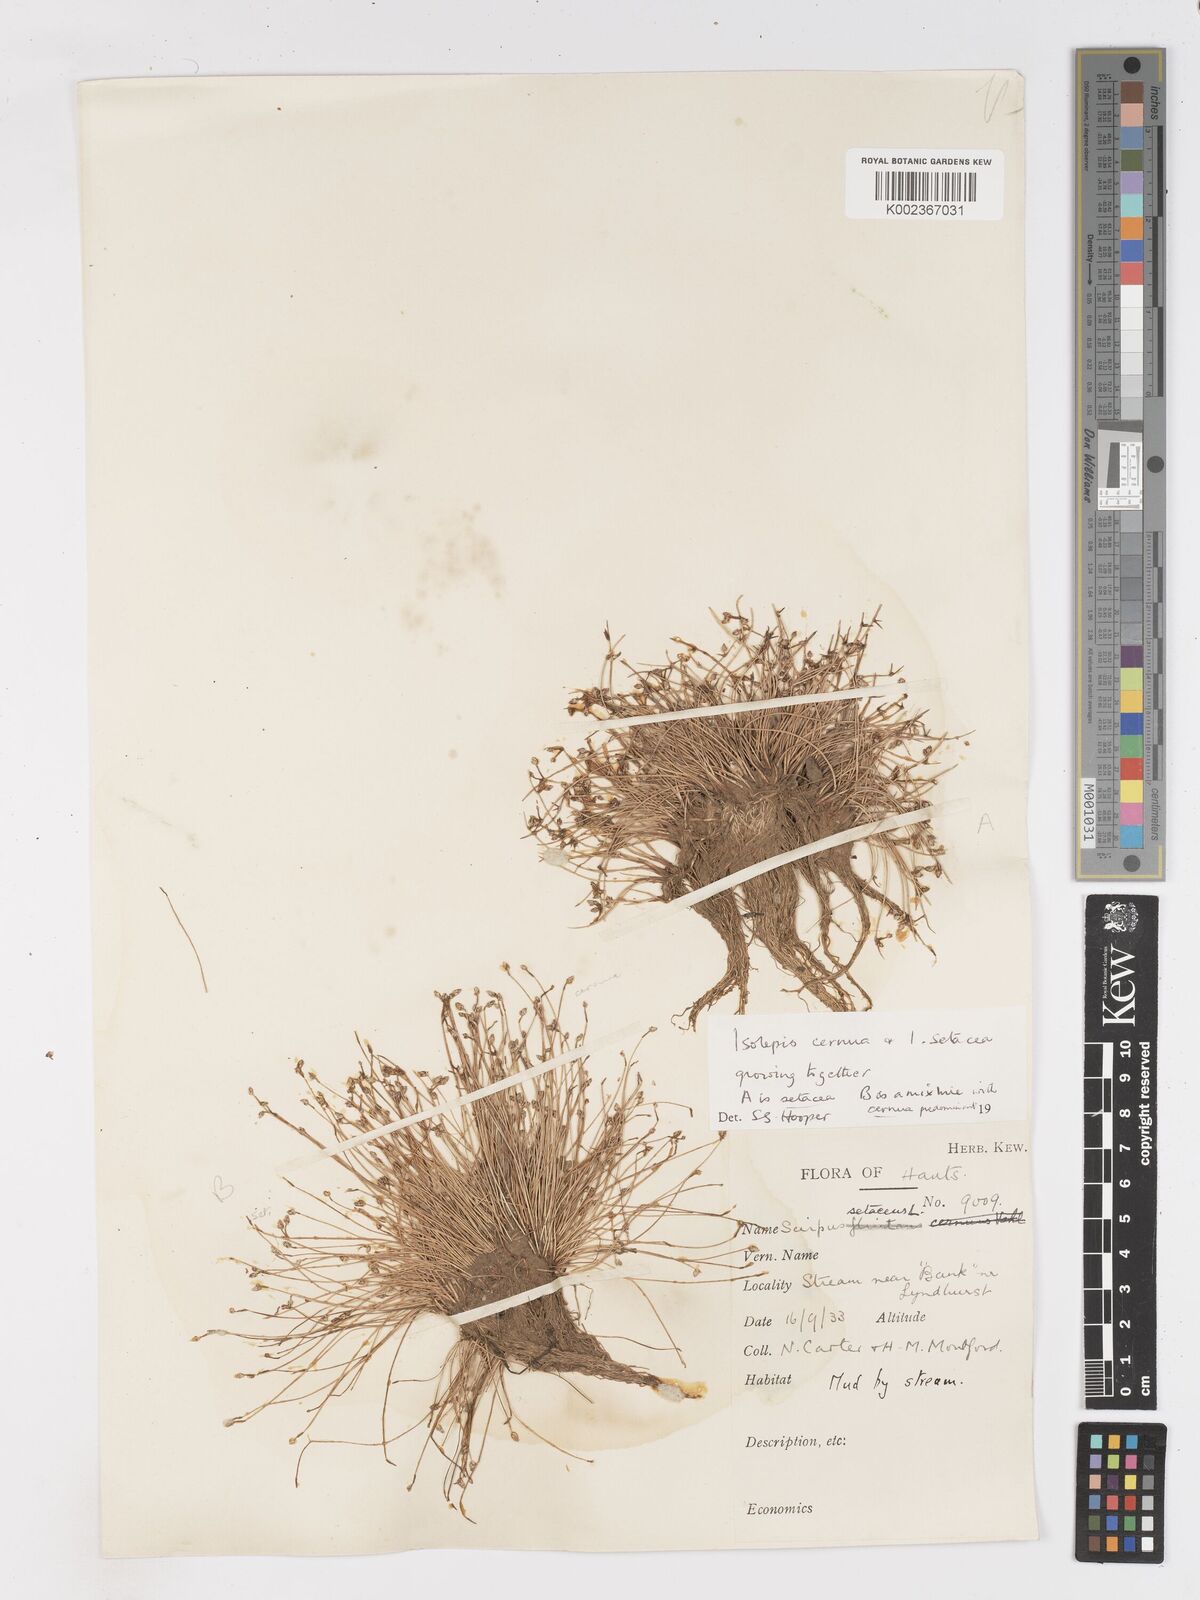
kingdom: Plantae
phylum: Tracheophyta
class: Liliopsida
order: Poales
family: Cyperaceae
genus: Isolepis
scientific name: Isolepis setacea
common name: Bristle club-rush
